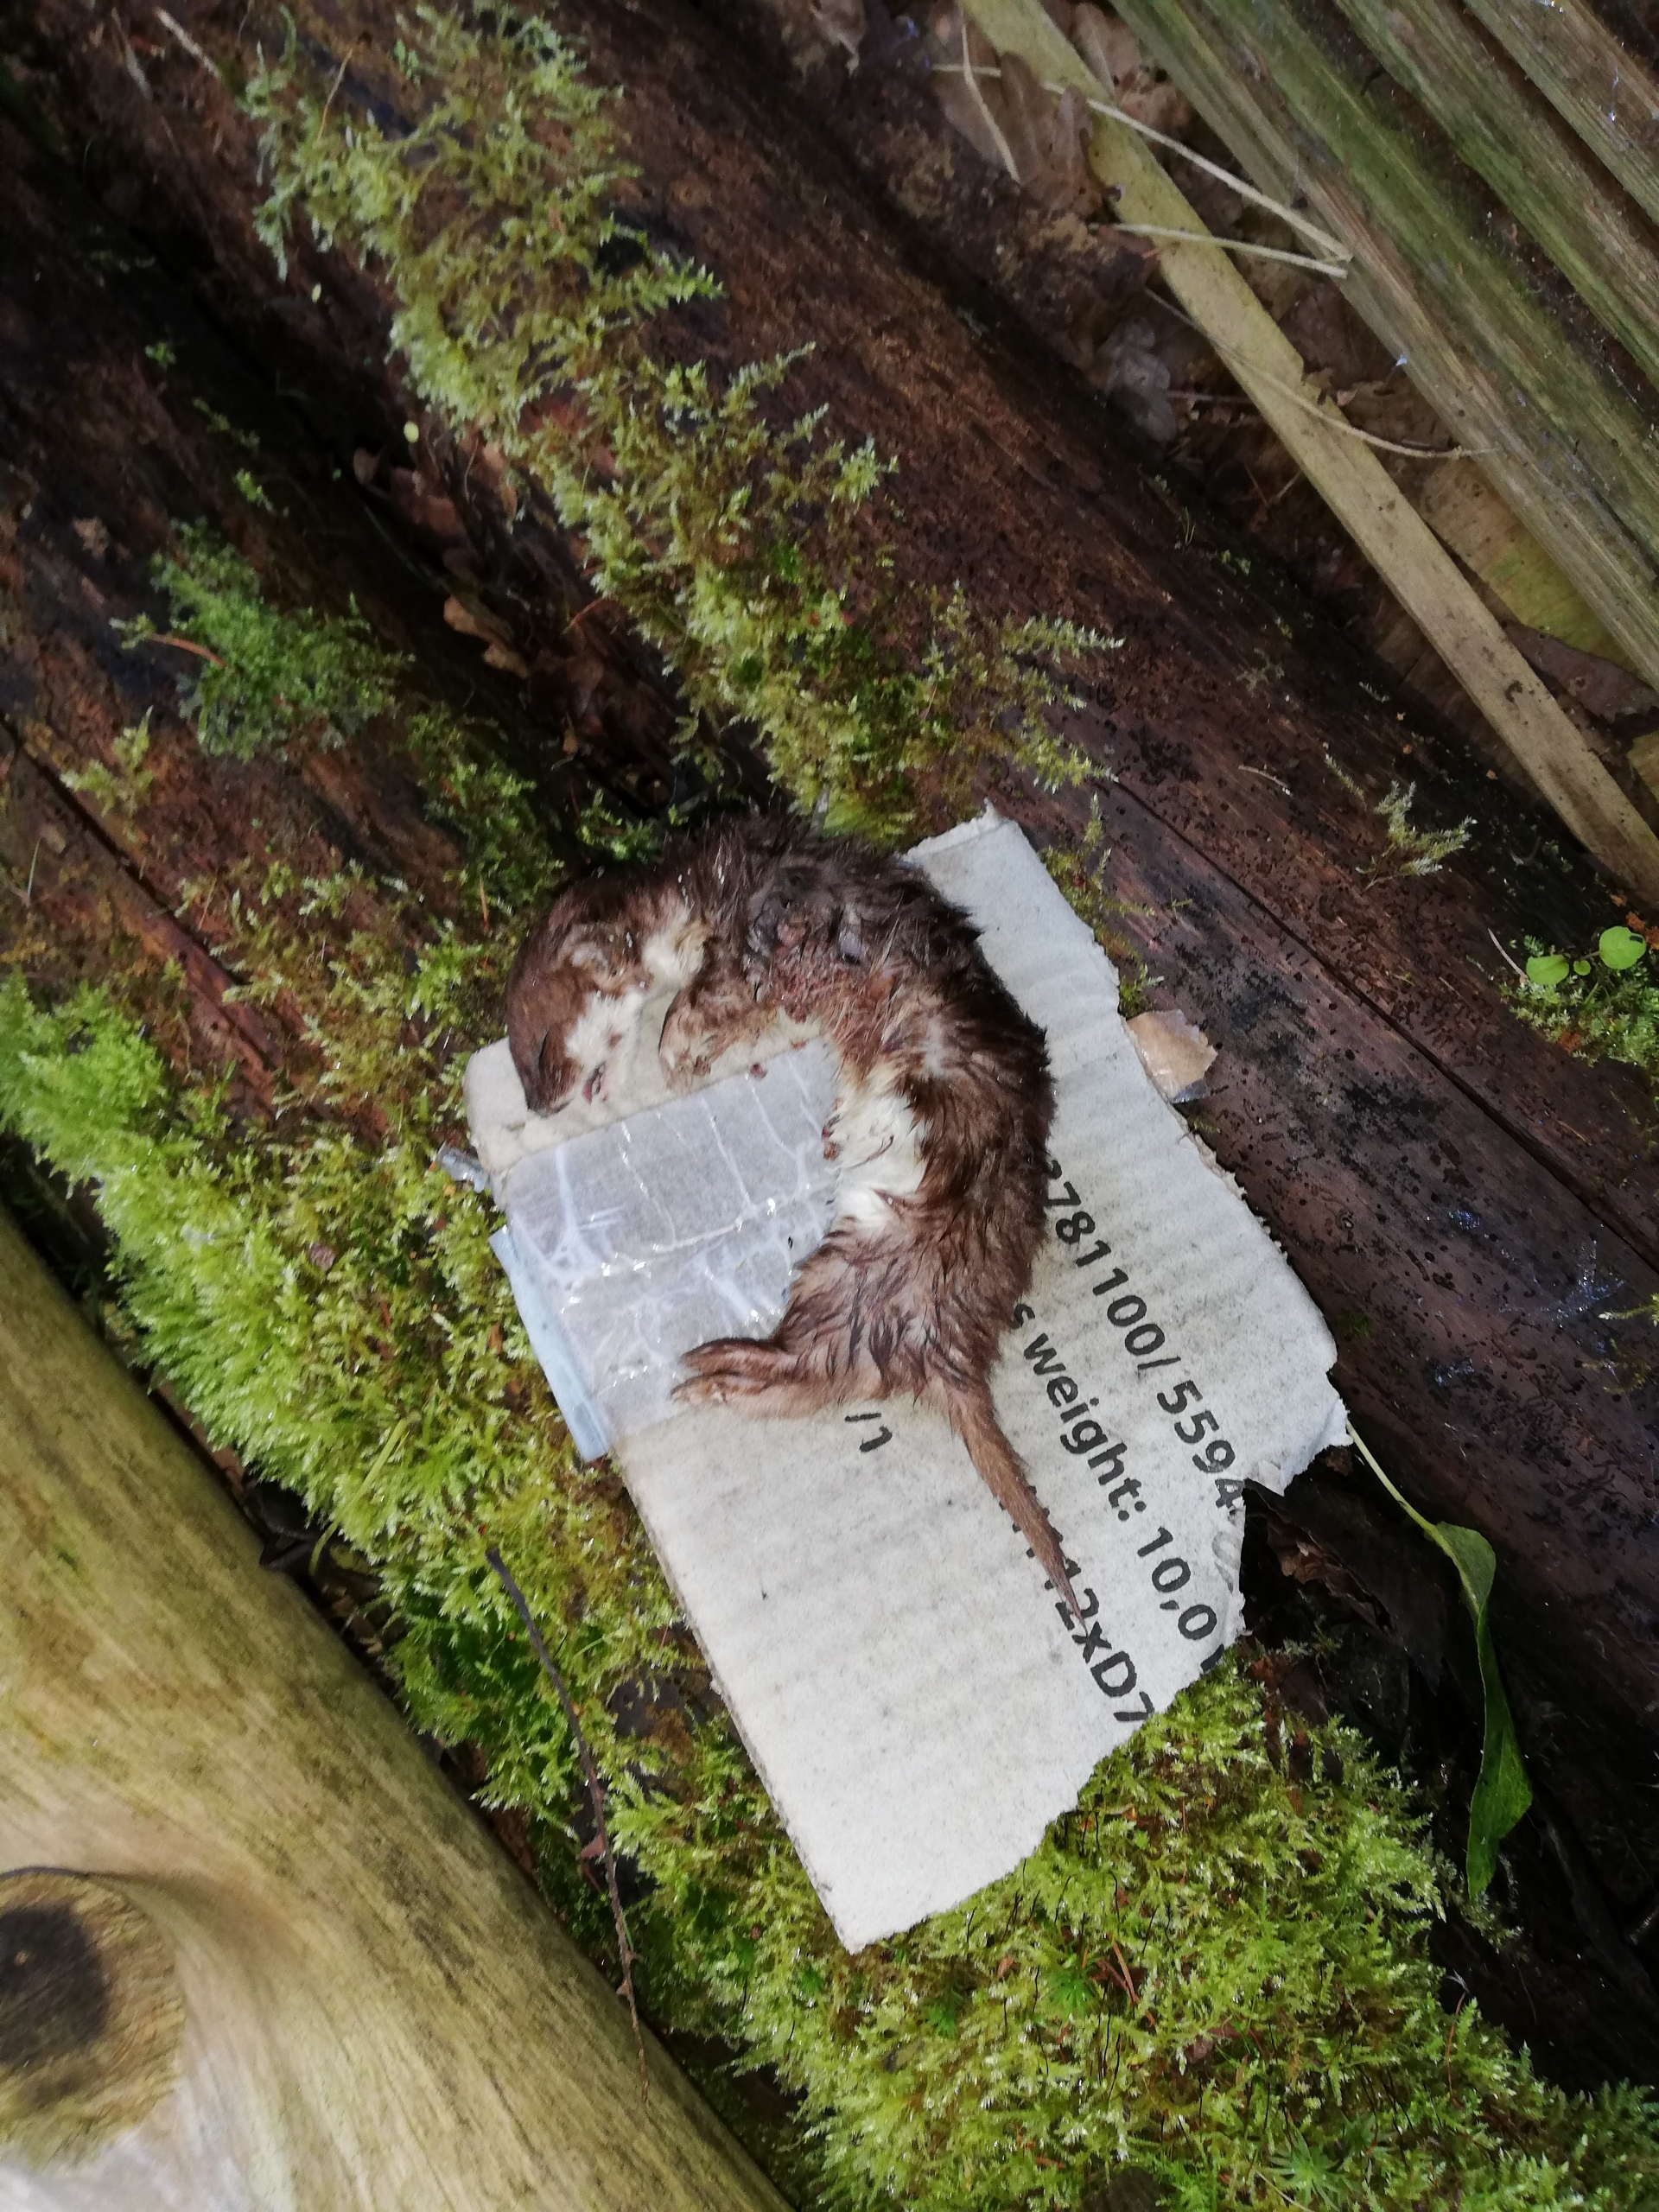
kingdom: Animalia
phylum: Chordata
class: Mammalia
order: Carnivora
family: Mustelidae
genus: Mustela
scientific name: Mustela nivalis
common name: Brud
